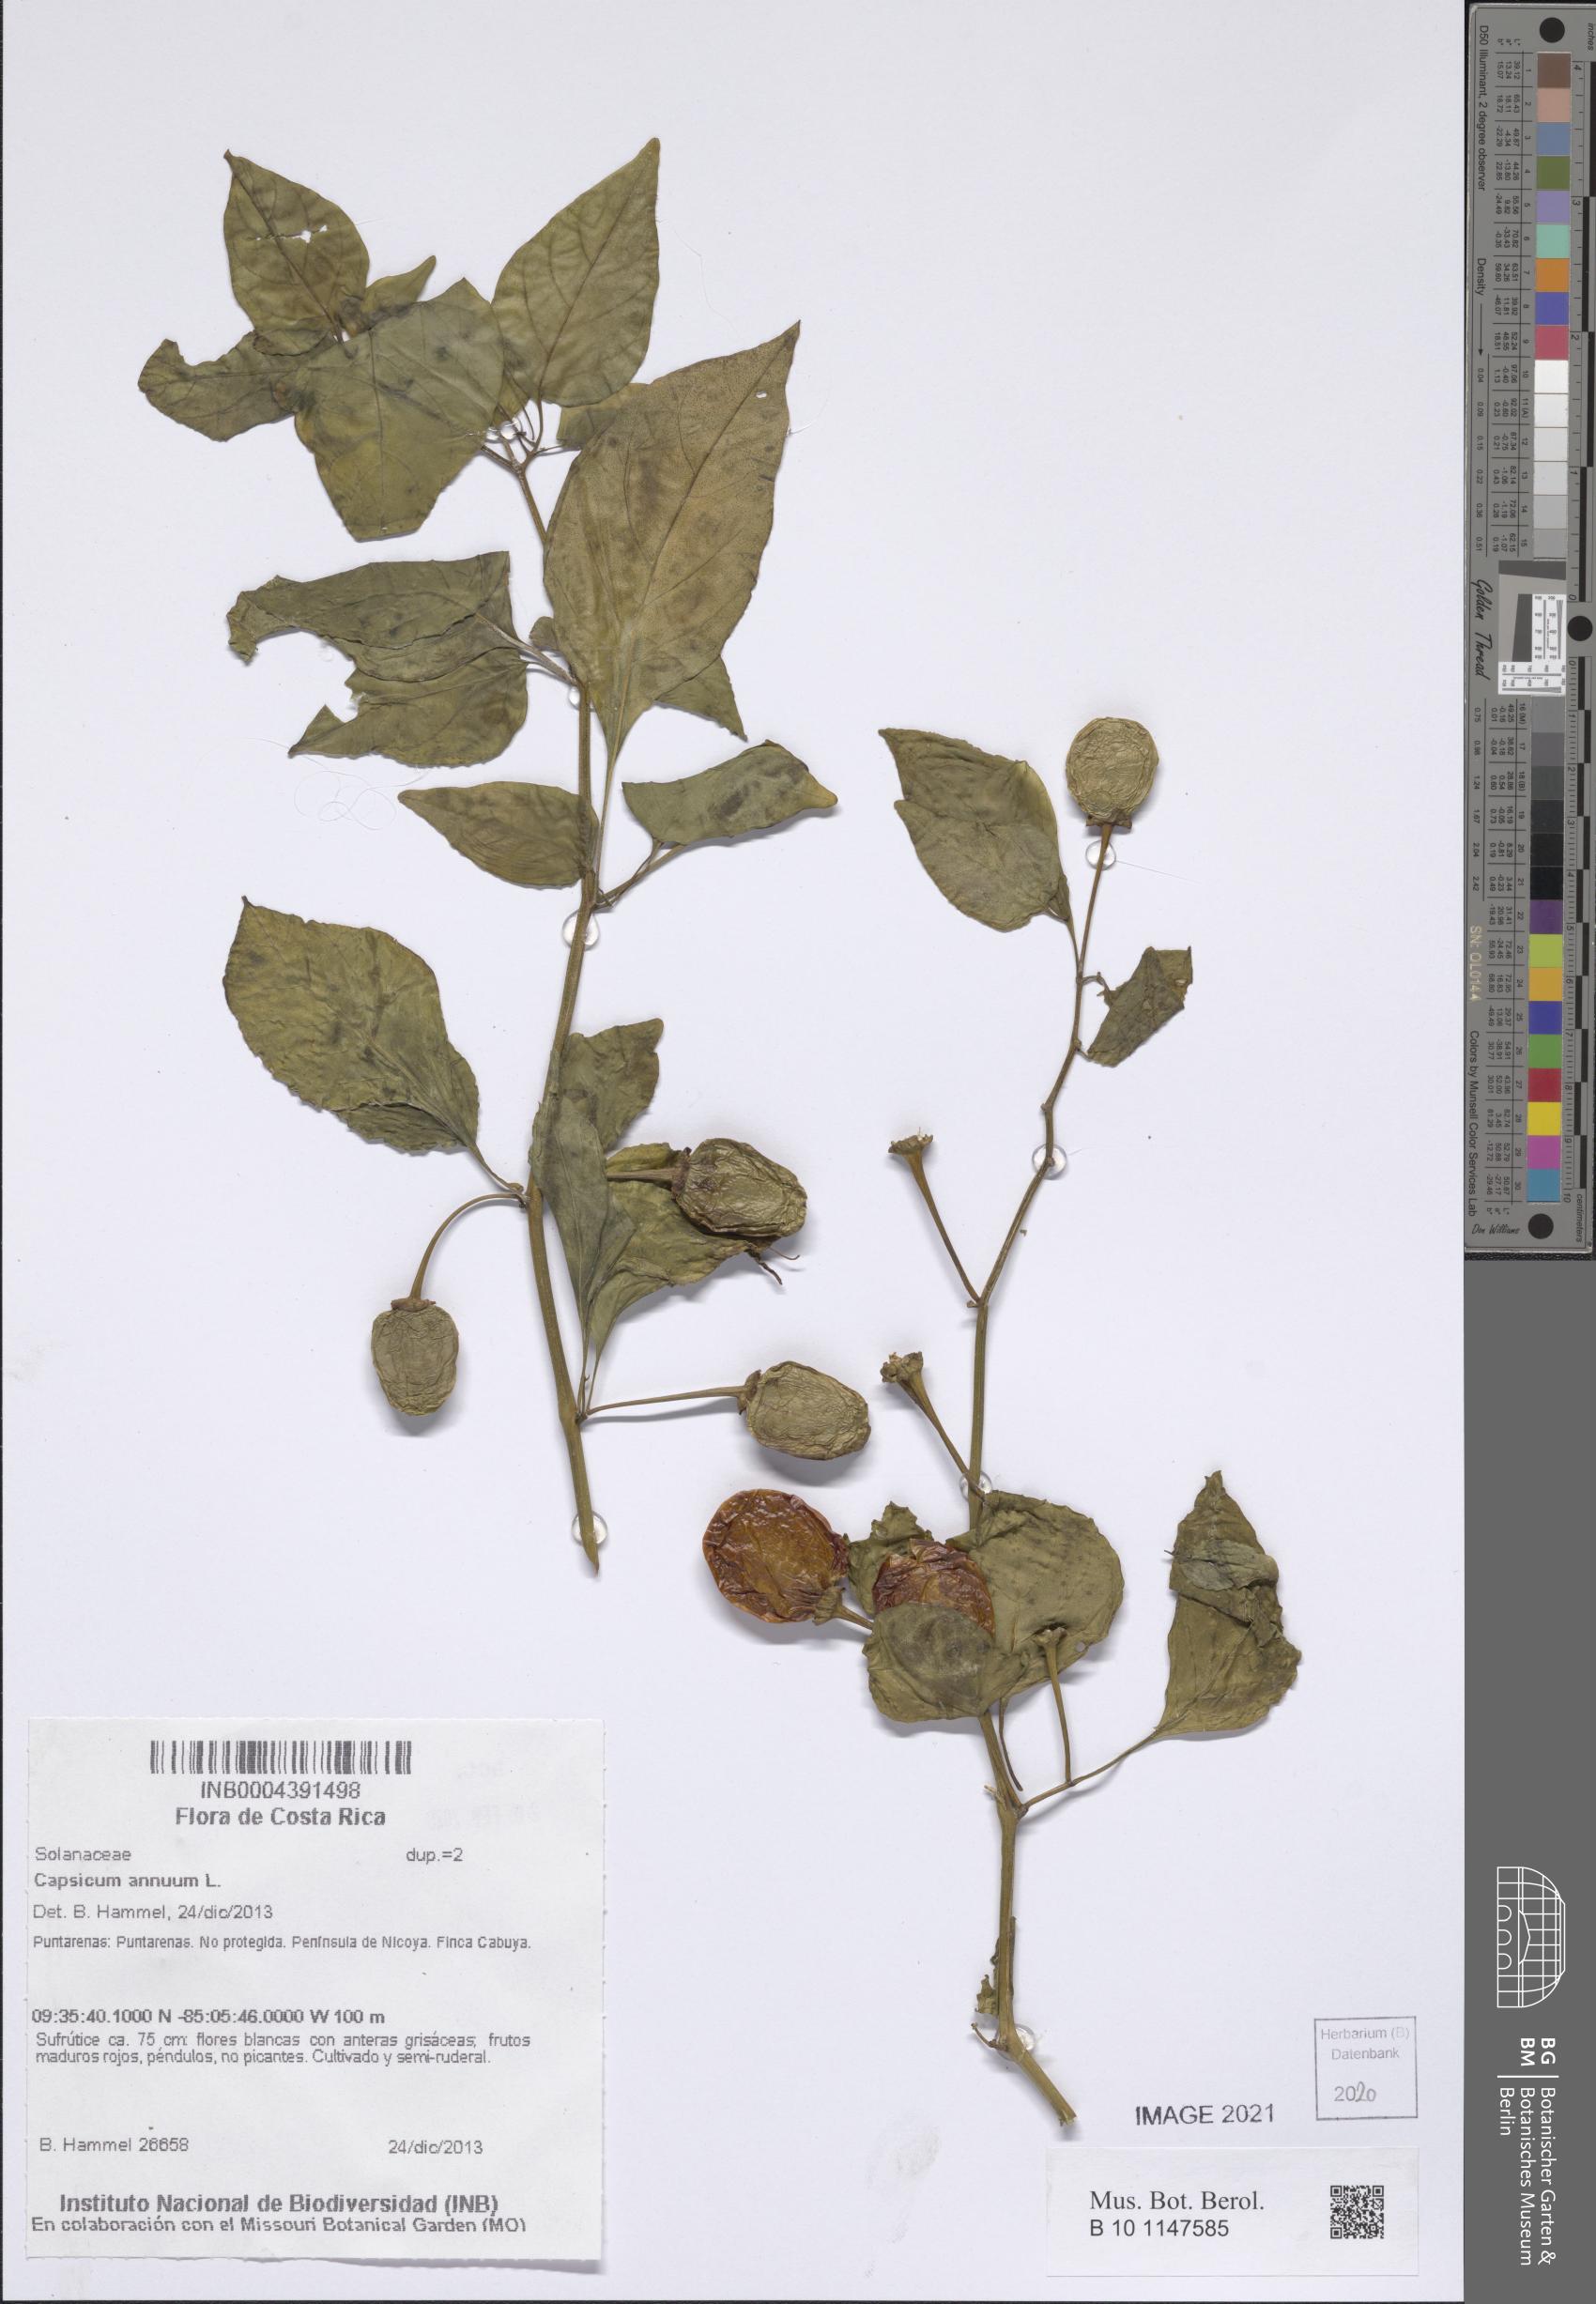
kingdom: Plantae
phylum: Tracheophyta
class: Magnoliopsida
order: Solanales
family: Solanaceae
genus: Capsicum
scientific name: Capsicum annuum
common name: Sweet pepper
